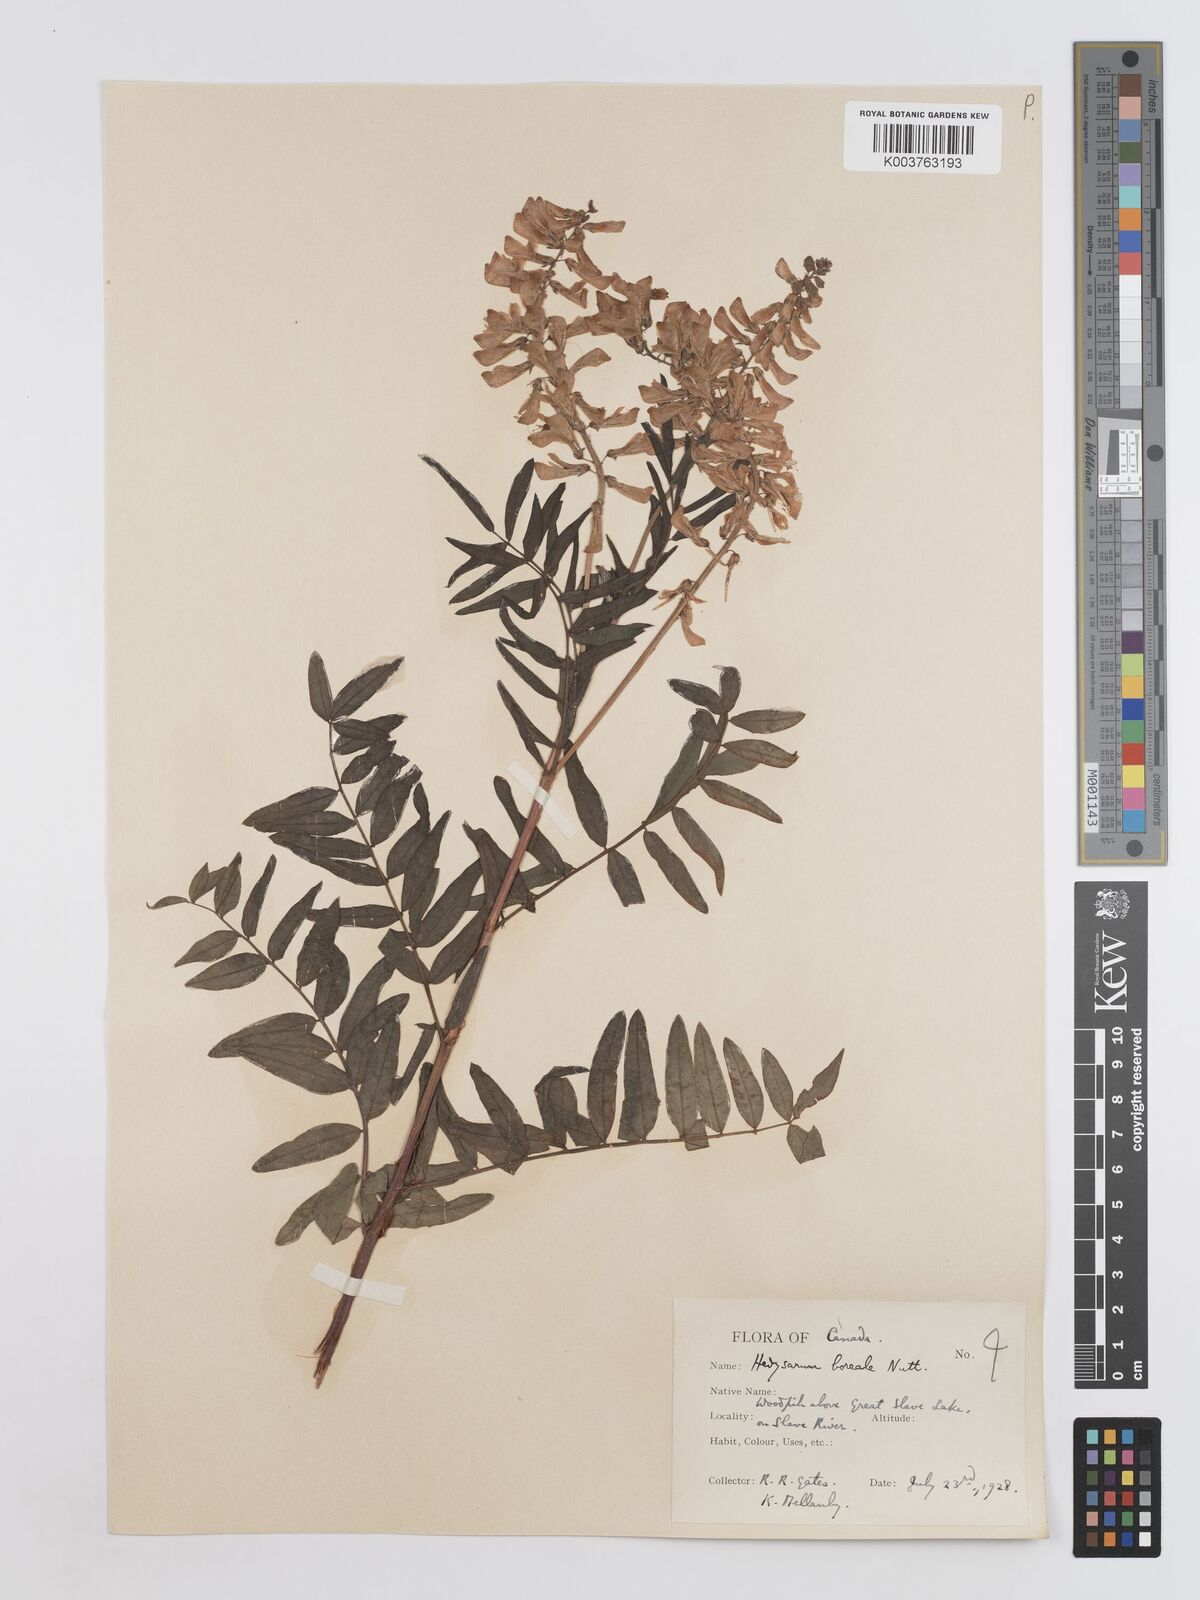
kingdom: Plantae
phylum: Tracheophyta
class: Magnoliopsida
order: Fabales
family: Fabaceae
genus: Hedysarum
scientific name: Hedysarum boreale
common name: Northern sweet-vetch
